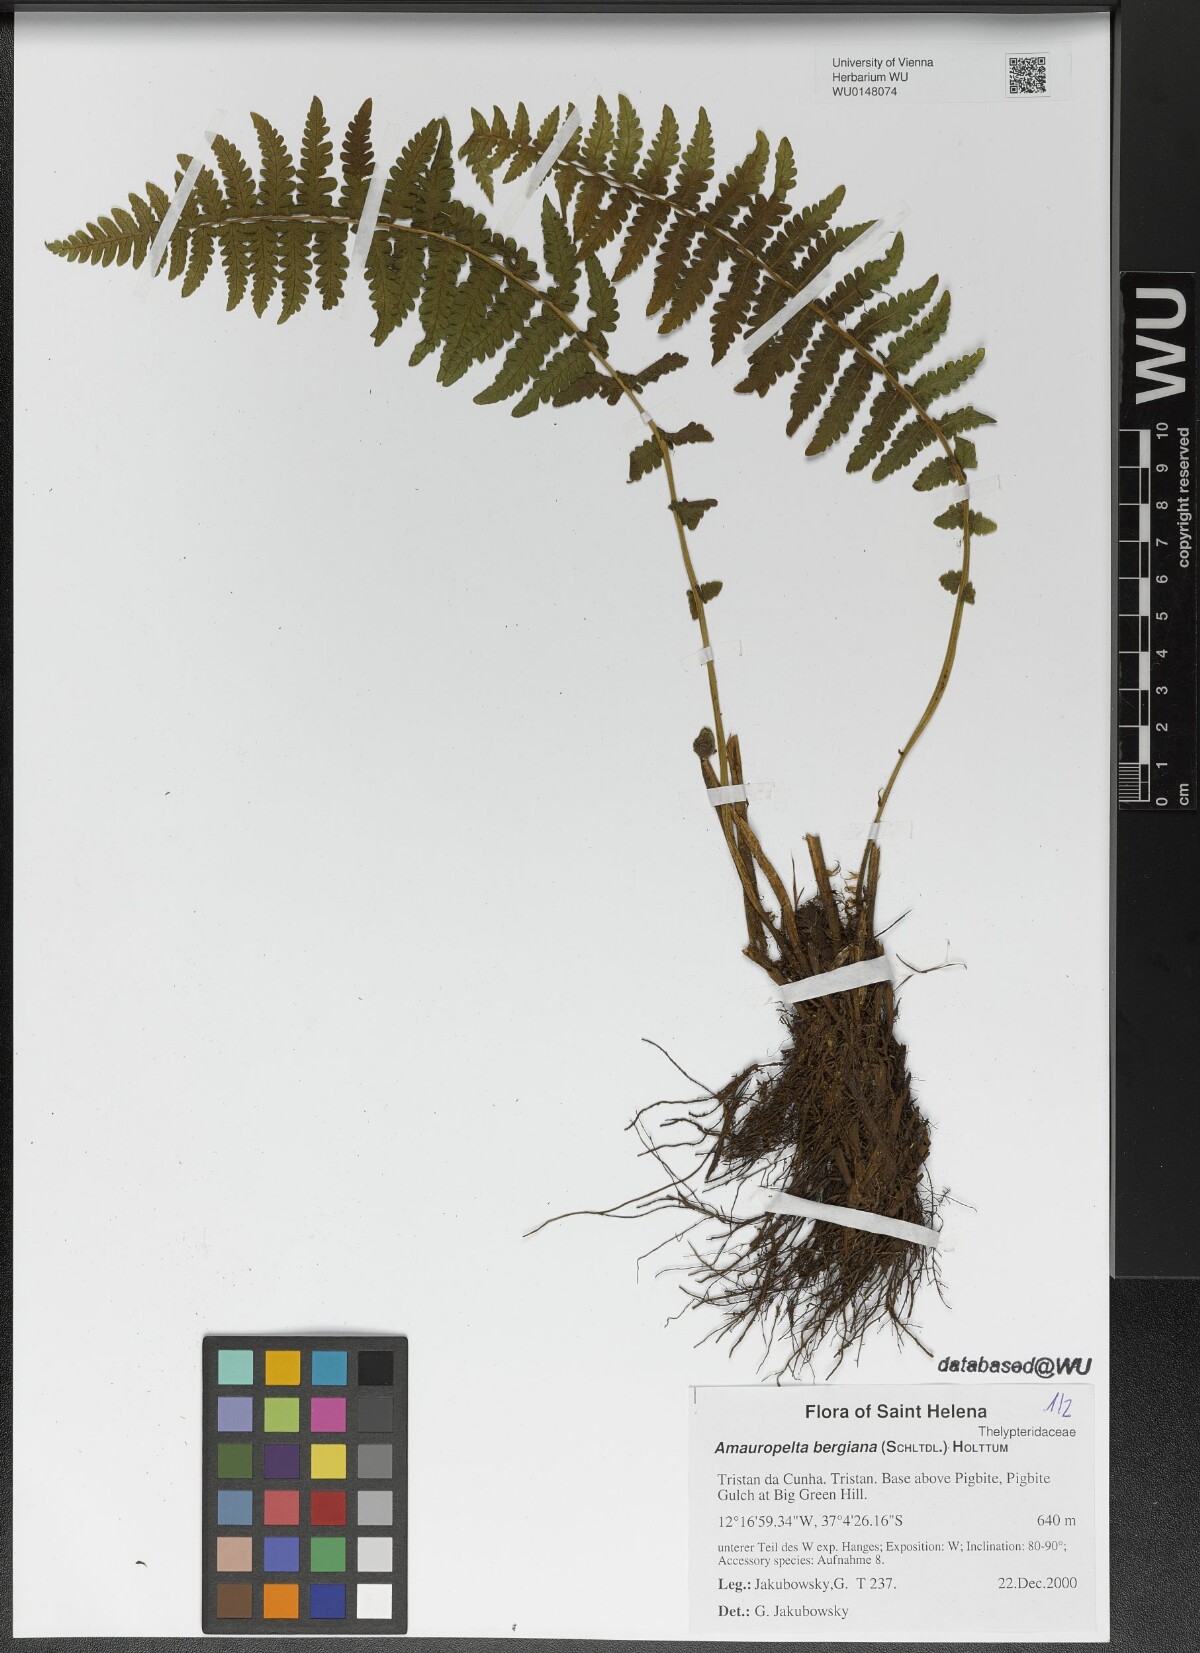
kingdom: Plantae
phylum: Tracheophyta
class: Polypodiopsida
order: Polypodiales
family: Thelypteridaceae
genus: Amauropelta
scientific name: Amauropelta bergiana
